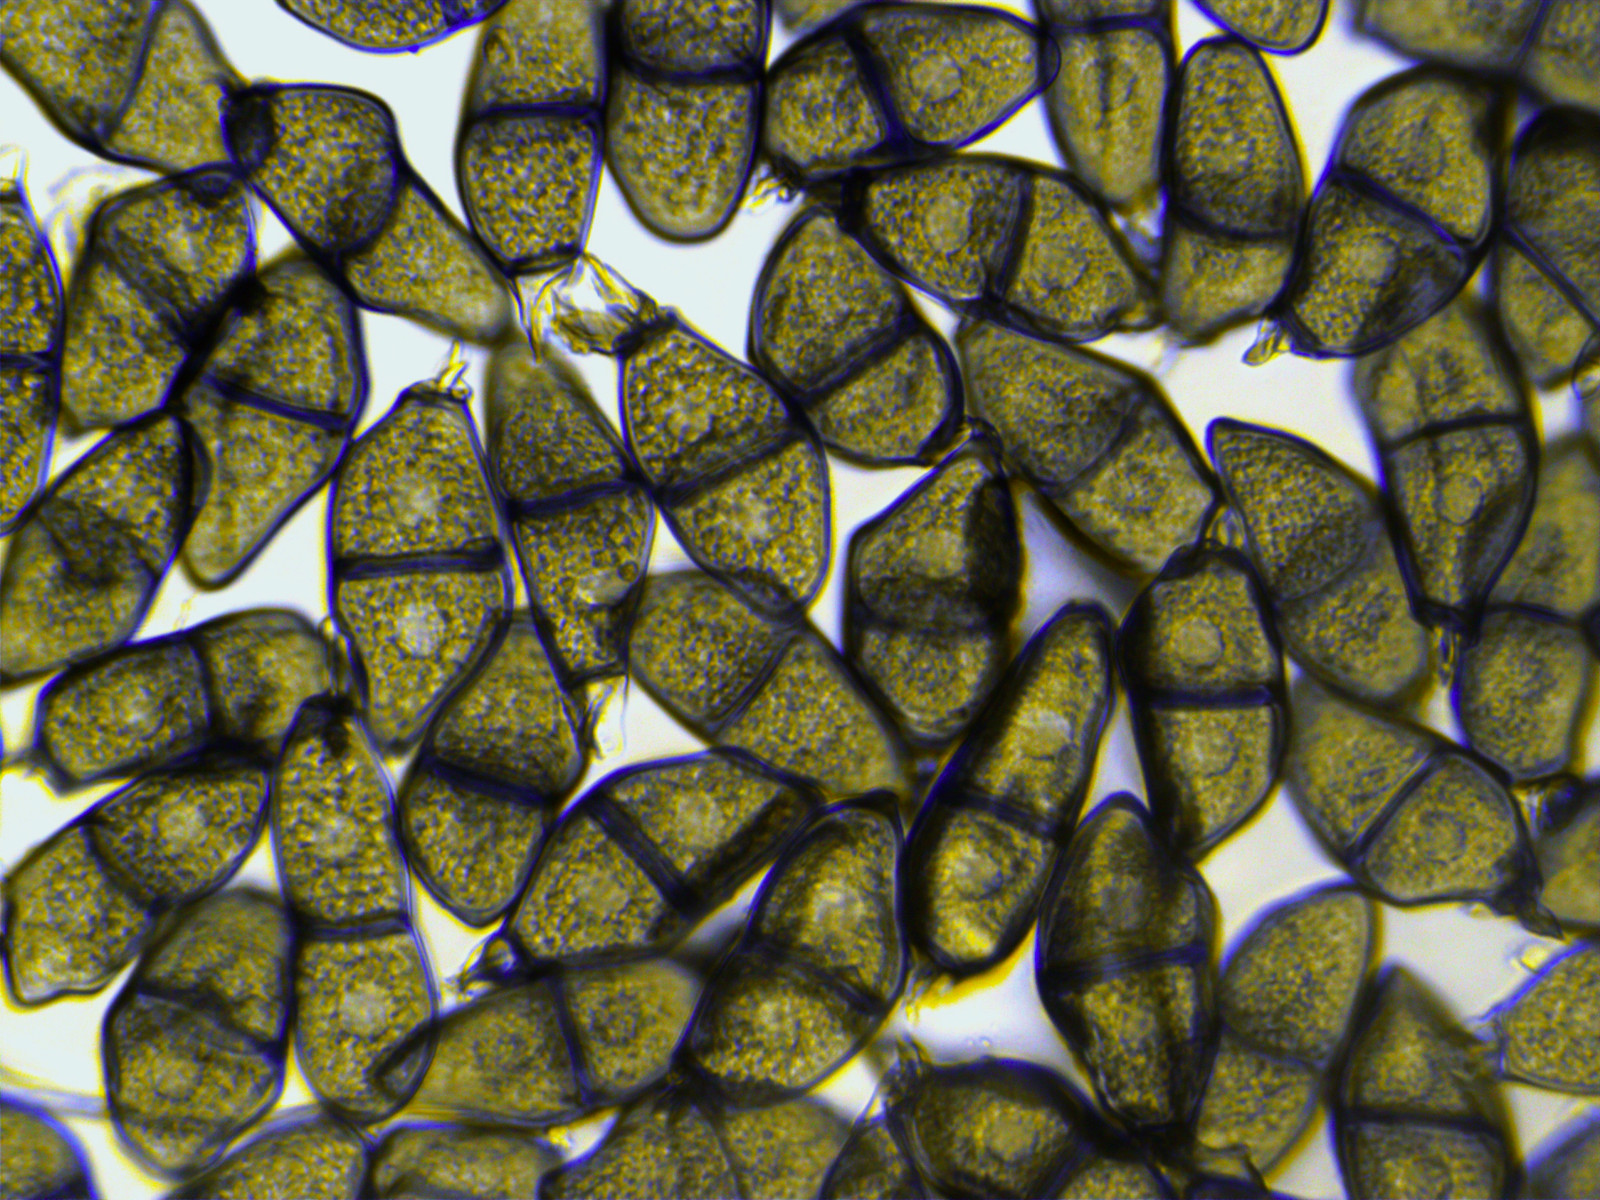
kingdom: Fungi
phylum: Basidiomycota
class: Pucciniomycetes
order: Pucciniales
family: Pucciniaceae
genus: Puccinia
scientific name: Puccinia liliacearum
